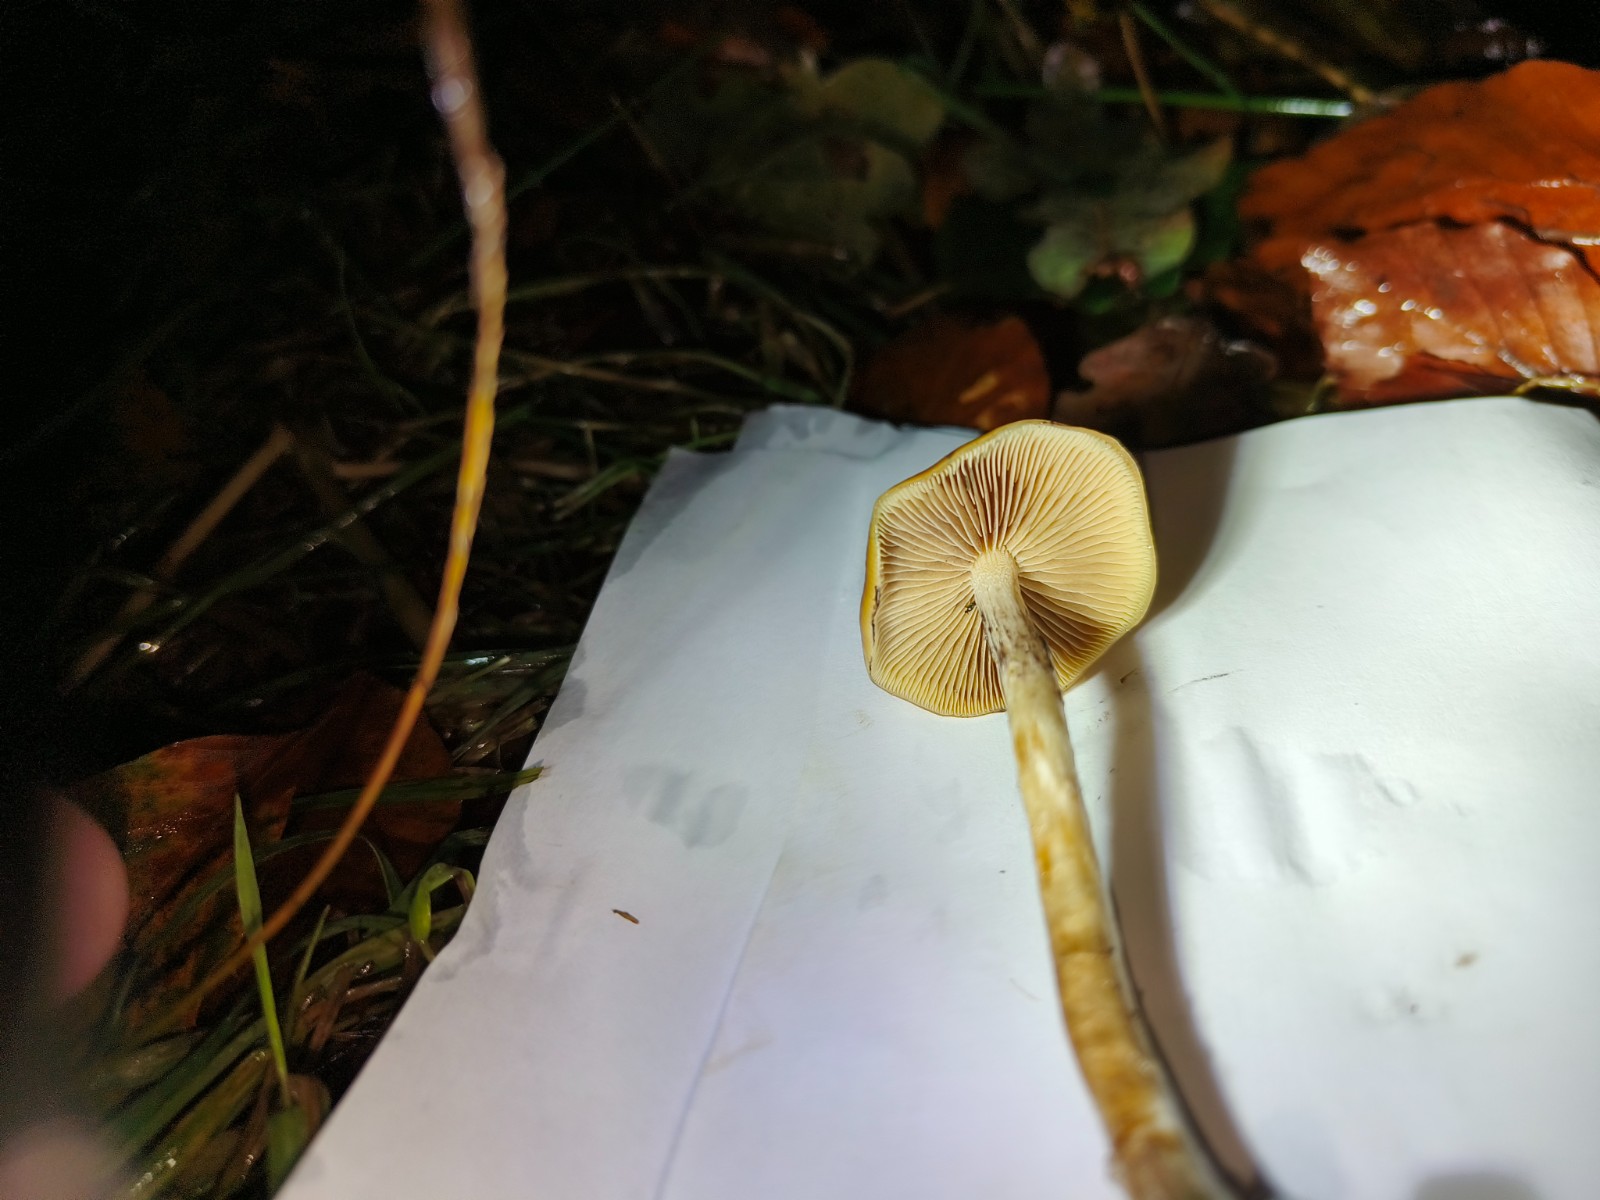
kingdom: Fungi
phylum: Basidiomycota
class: Agaricomycetes
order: Agaricales
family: Hymenogastraceae
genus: Psilocybe
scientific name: Psilocybe cyanescens
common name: blånende nøgenhat
